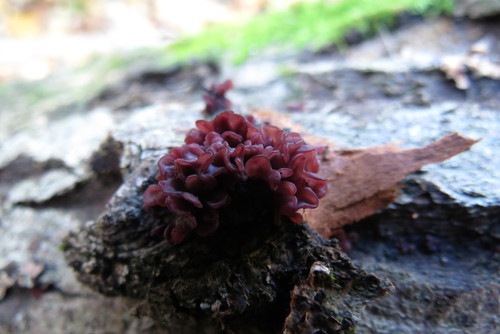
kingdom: Fungi
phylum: Ascomycota
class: Leotiomycetes
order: Helotiales
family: Gelatinodiscaceae
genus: Ascocoryne
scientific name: Ascocoryne sarcoides
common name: Purple jellydisc
